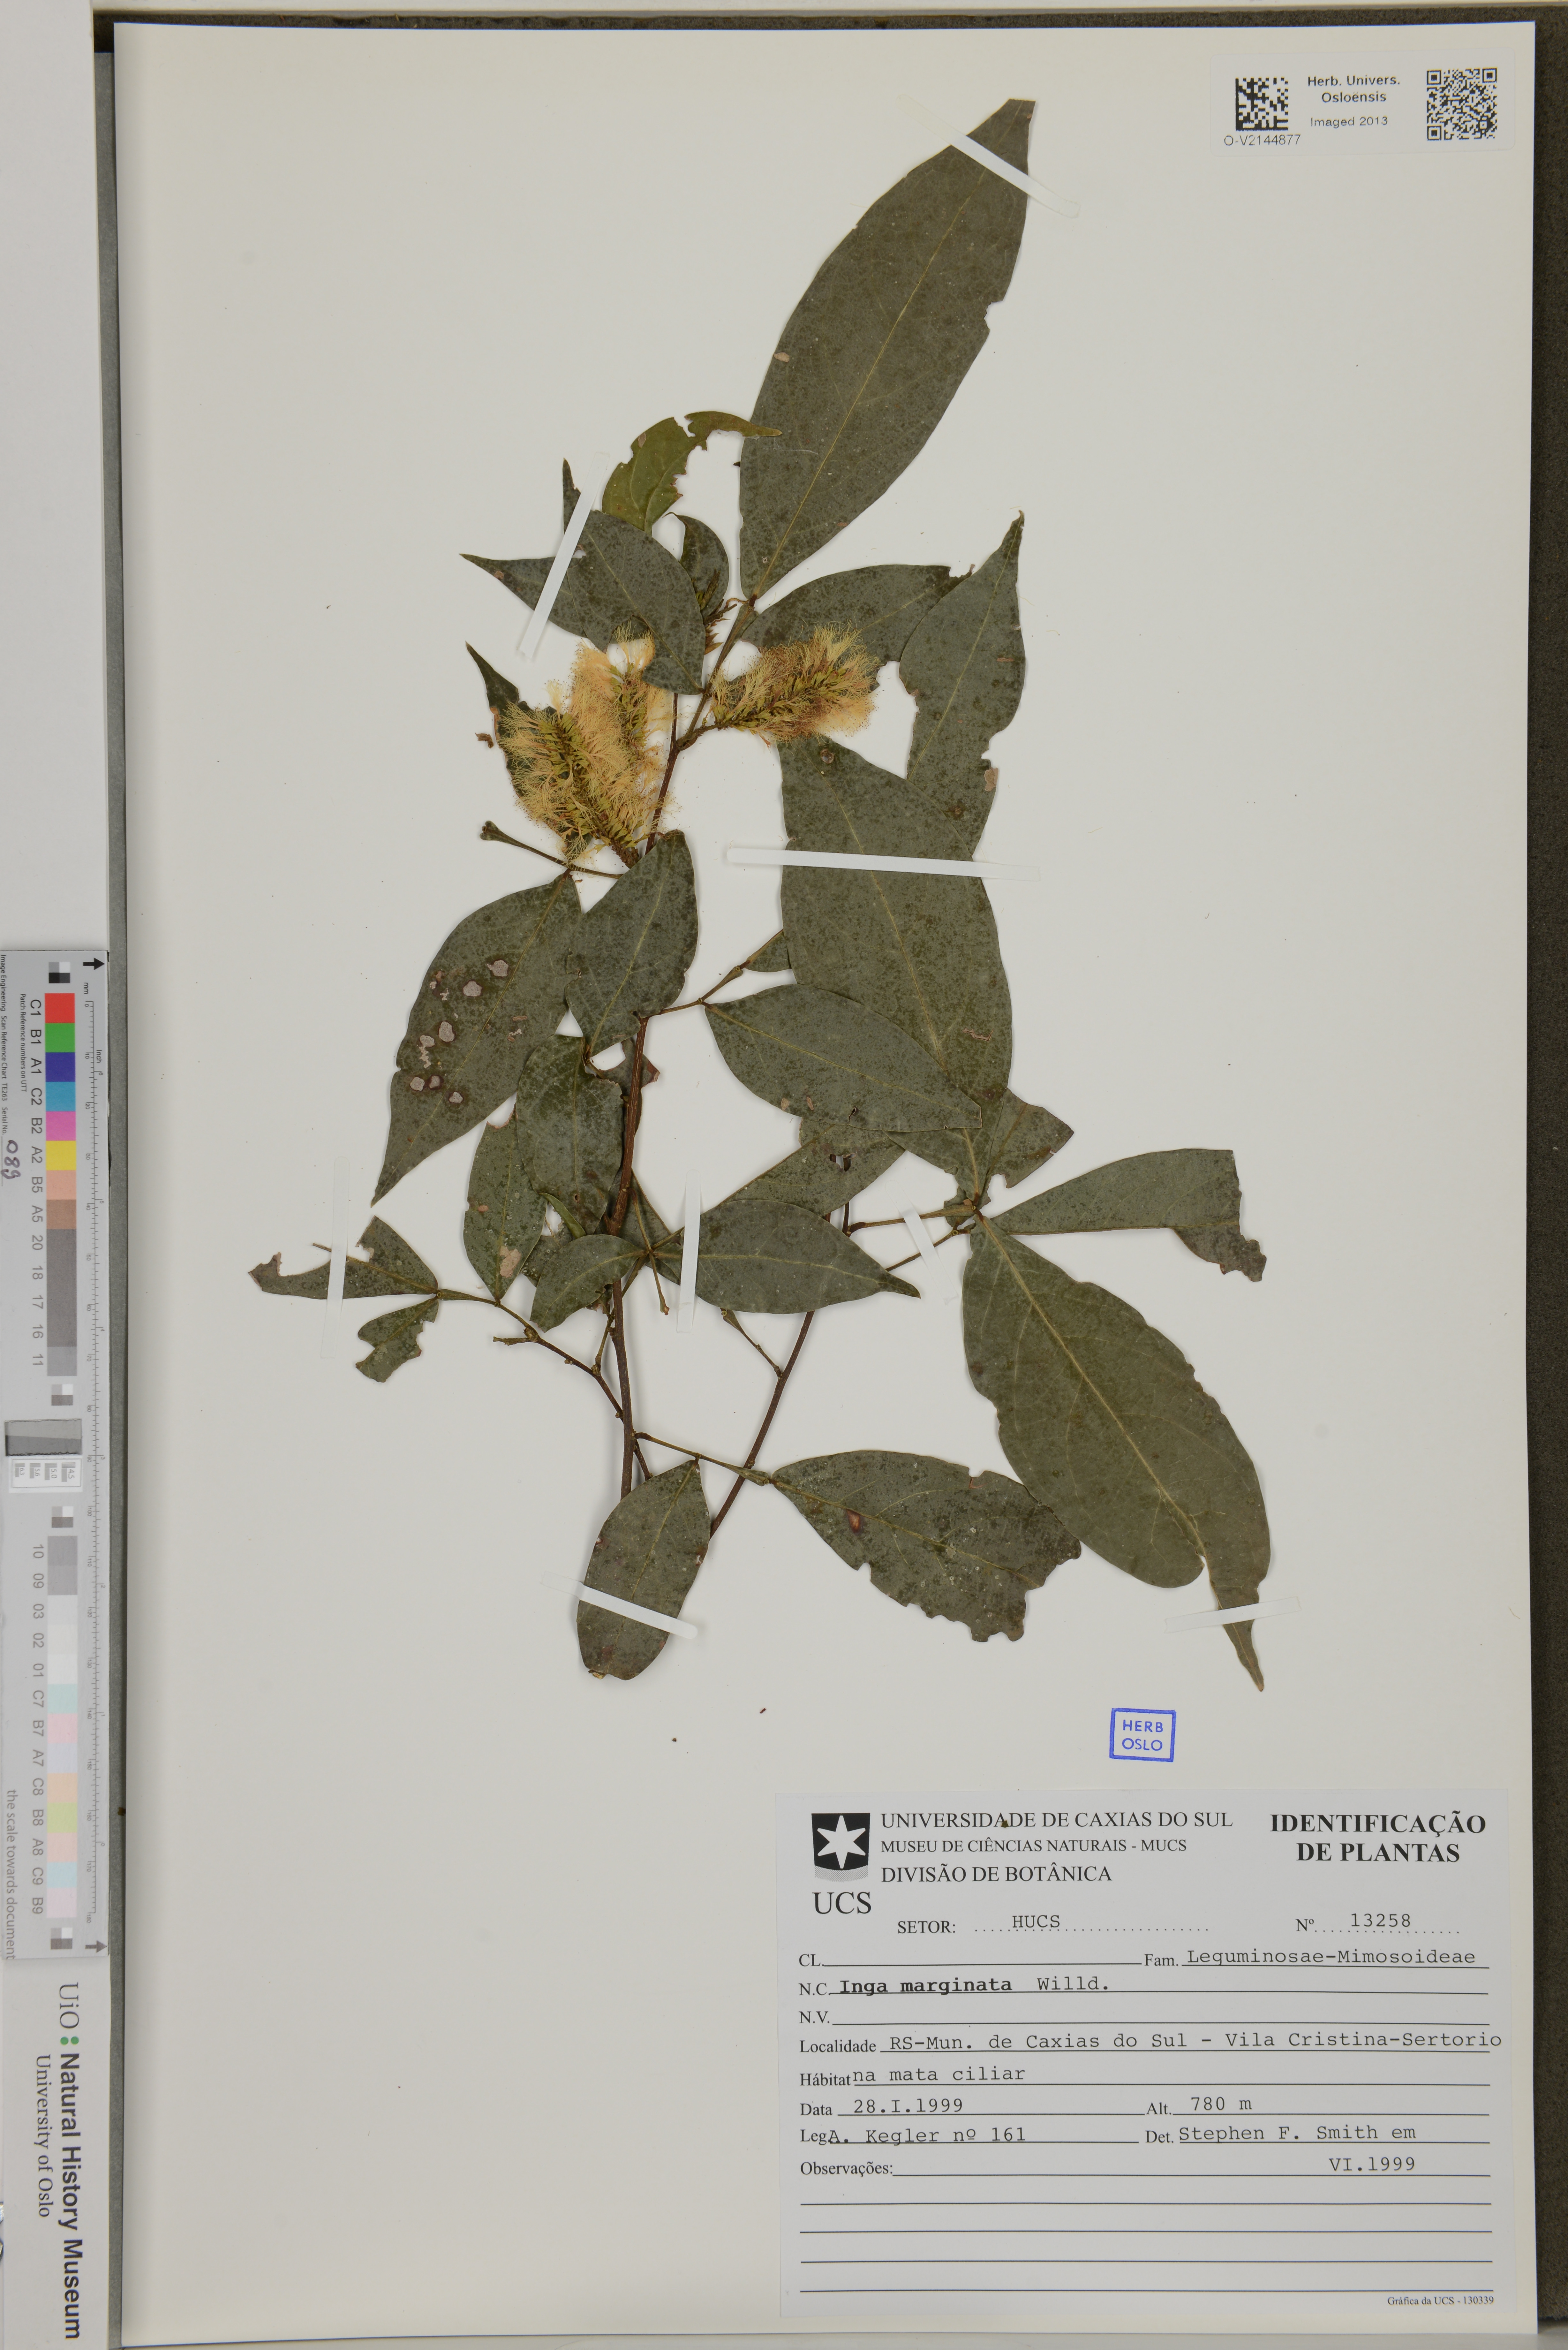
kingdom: Plantae
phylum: Tracheophyta
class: Magnoliopsida
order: Fabales
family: Fabaceae
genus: Inga
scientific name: Inga marginata
